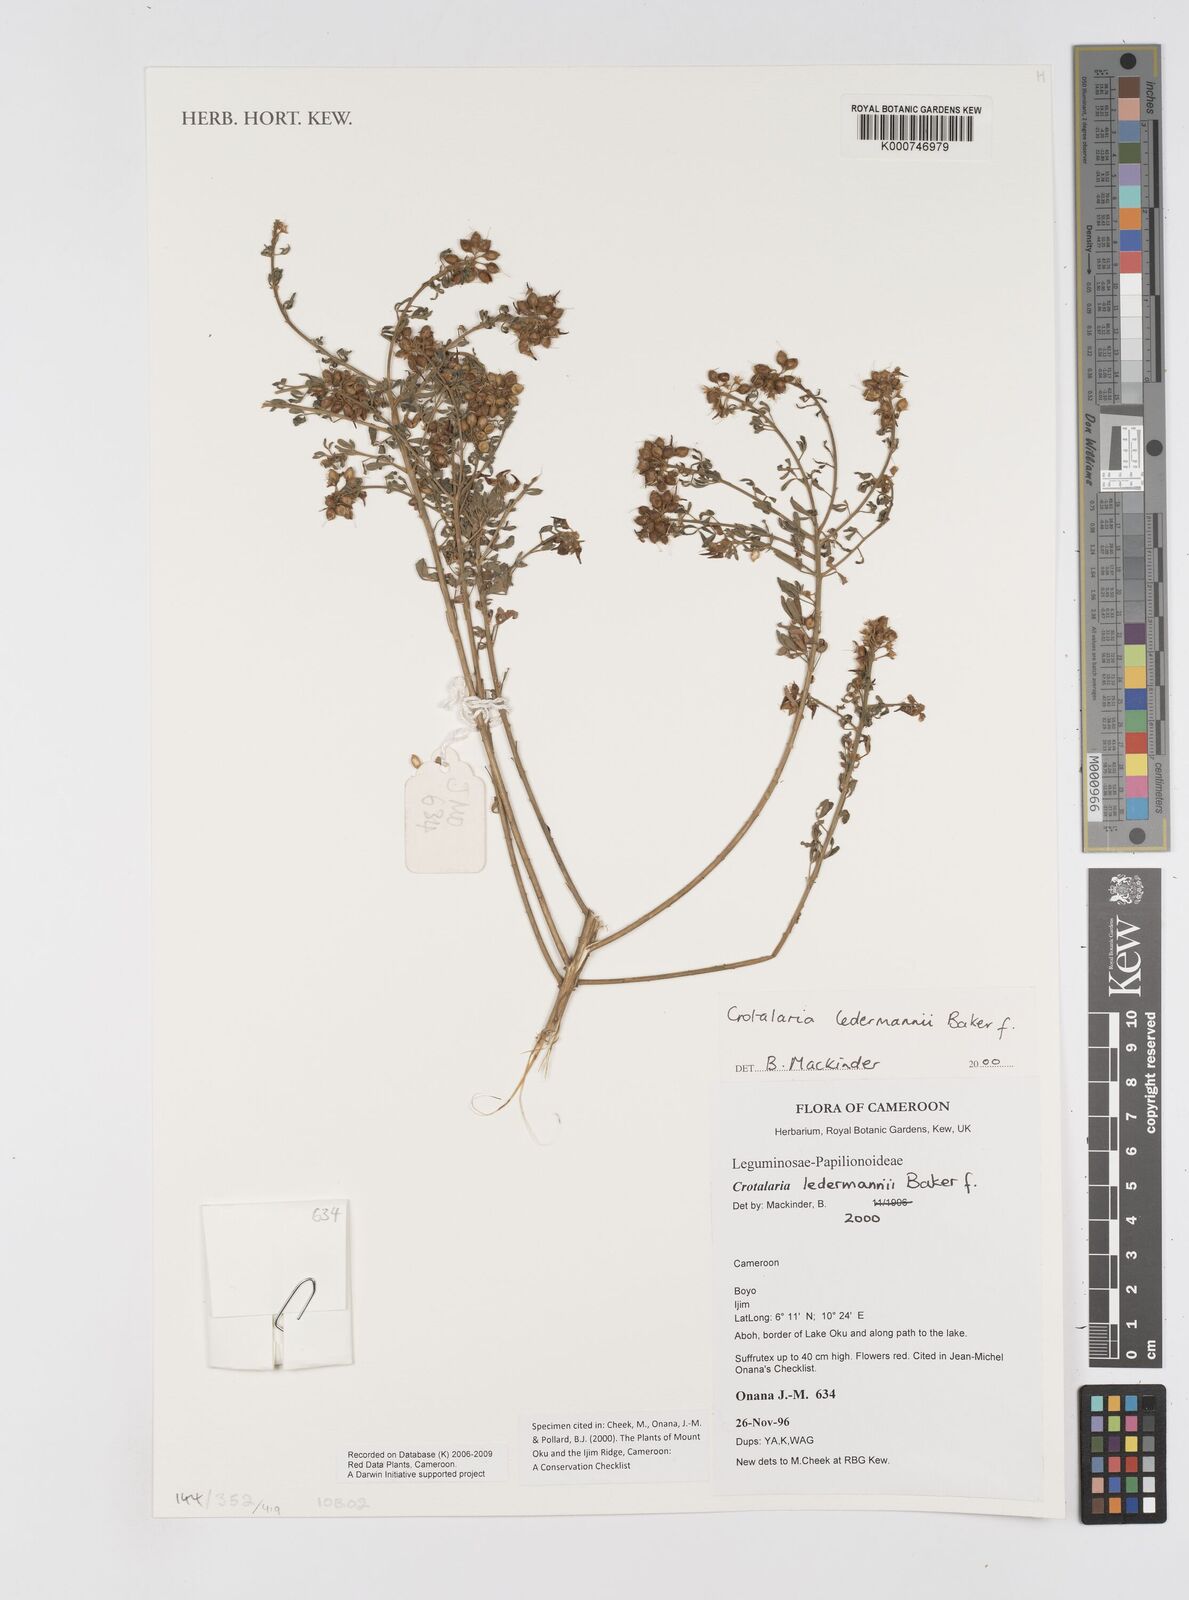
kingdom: Plantae
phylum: Tracheophyta
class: Magnoliopsida
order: Fabales
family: Fabaceae
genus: Crotalaria
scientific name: Crotalaria ledermannii
